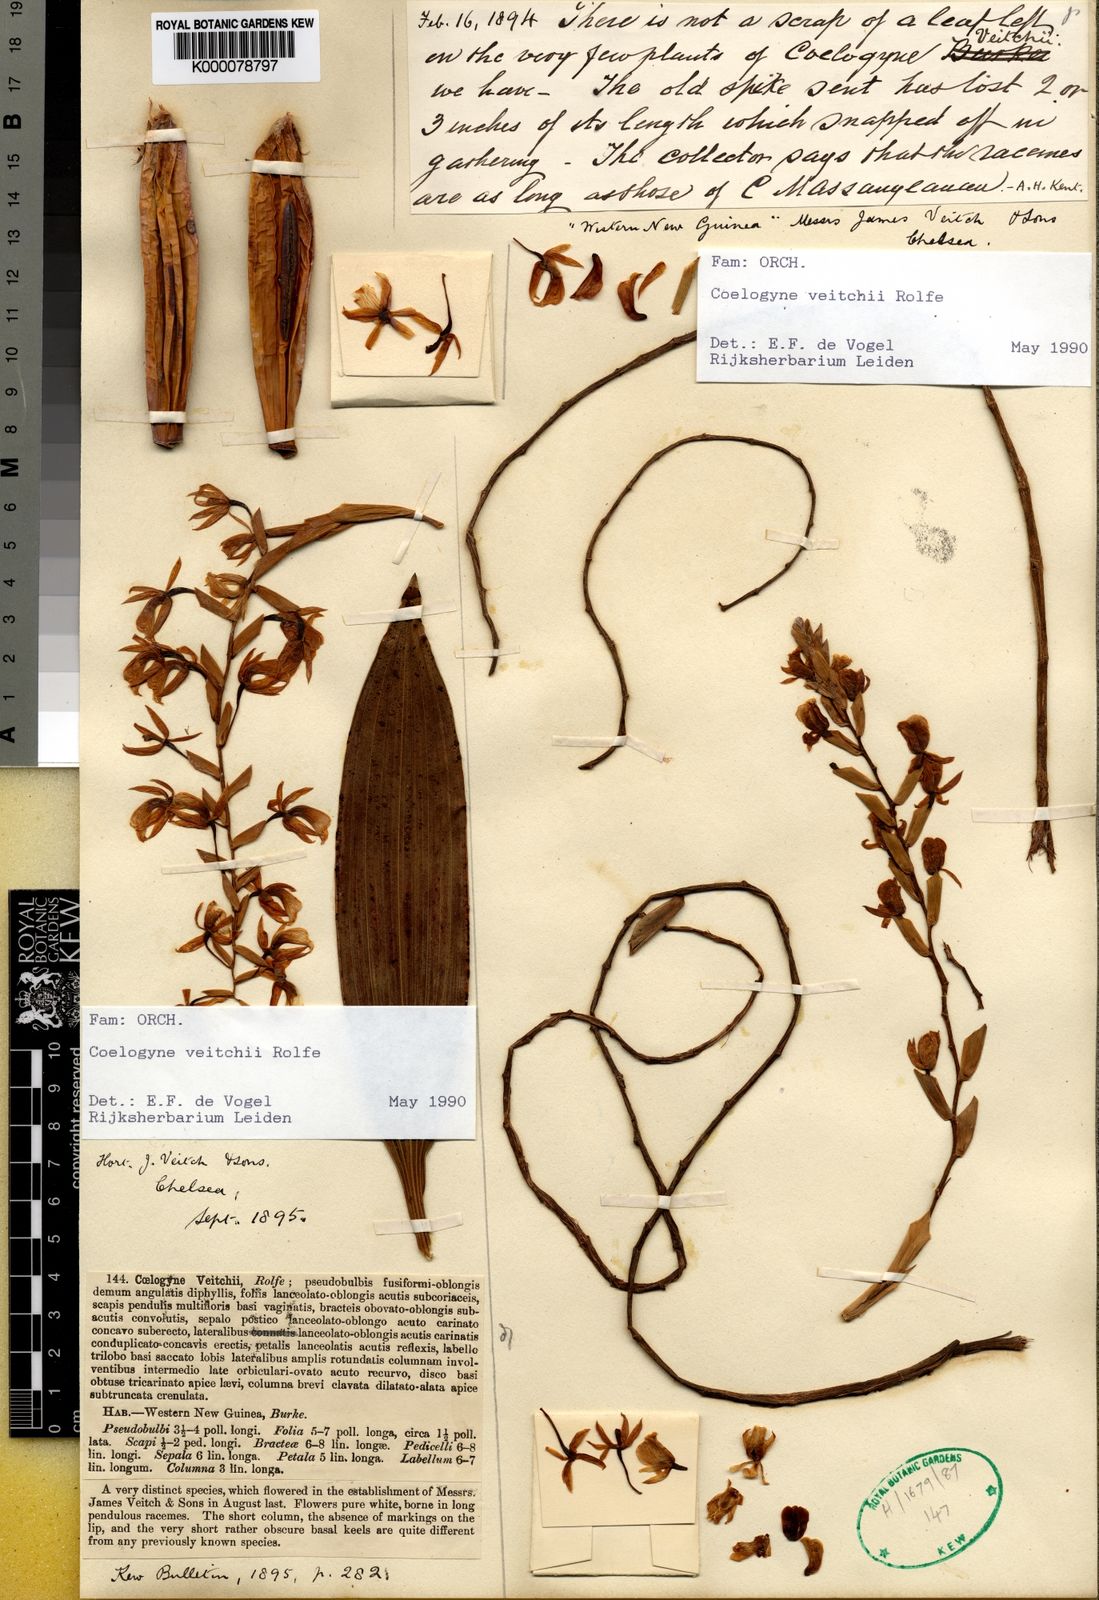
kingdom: Plantae
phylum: Tracheophyta
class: Liliopsida
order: Asparagales
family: Orchidaceae
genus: Coelogyne
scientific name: Coelogyne veitchii
